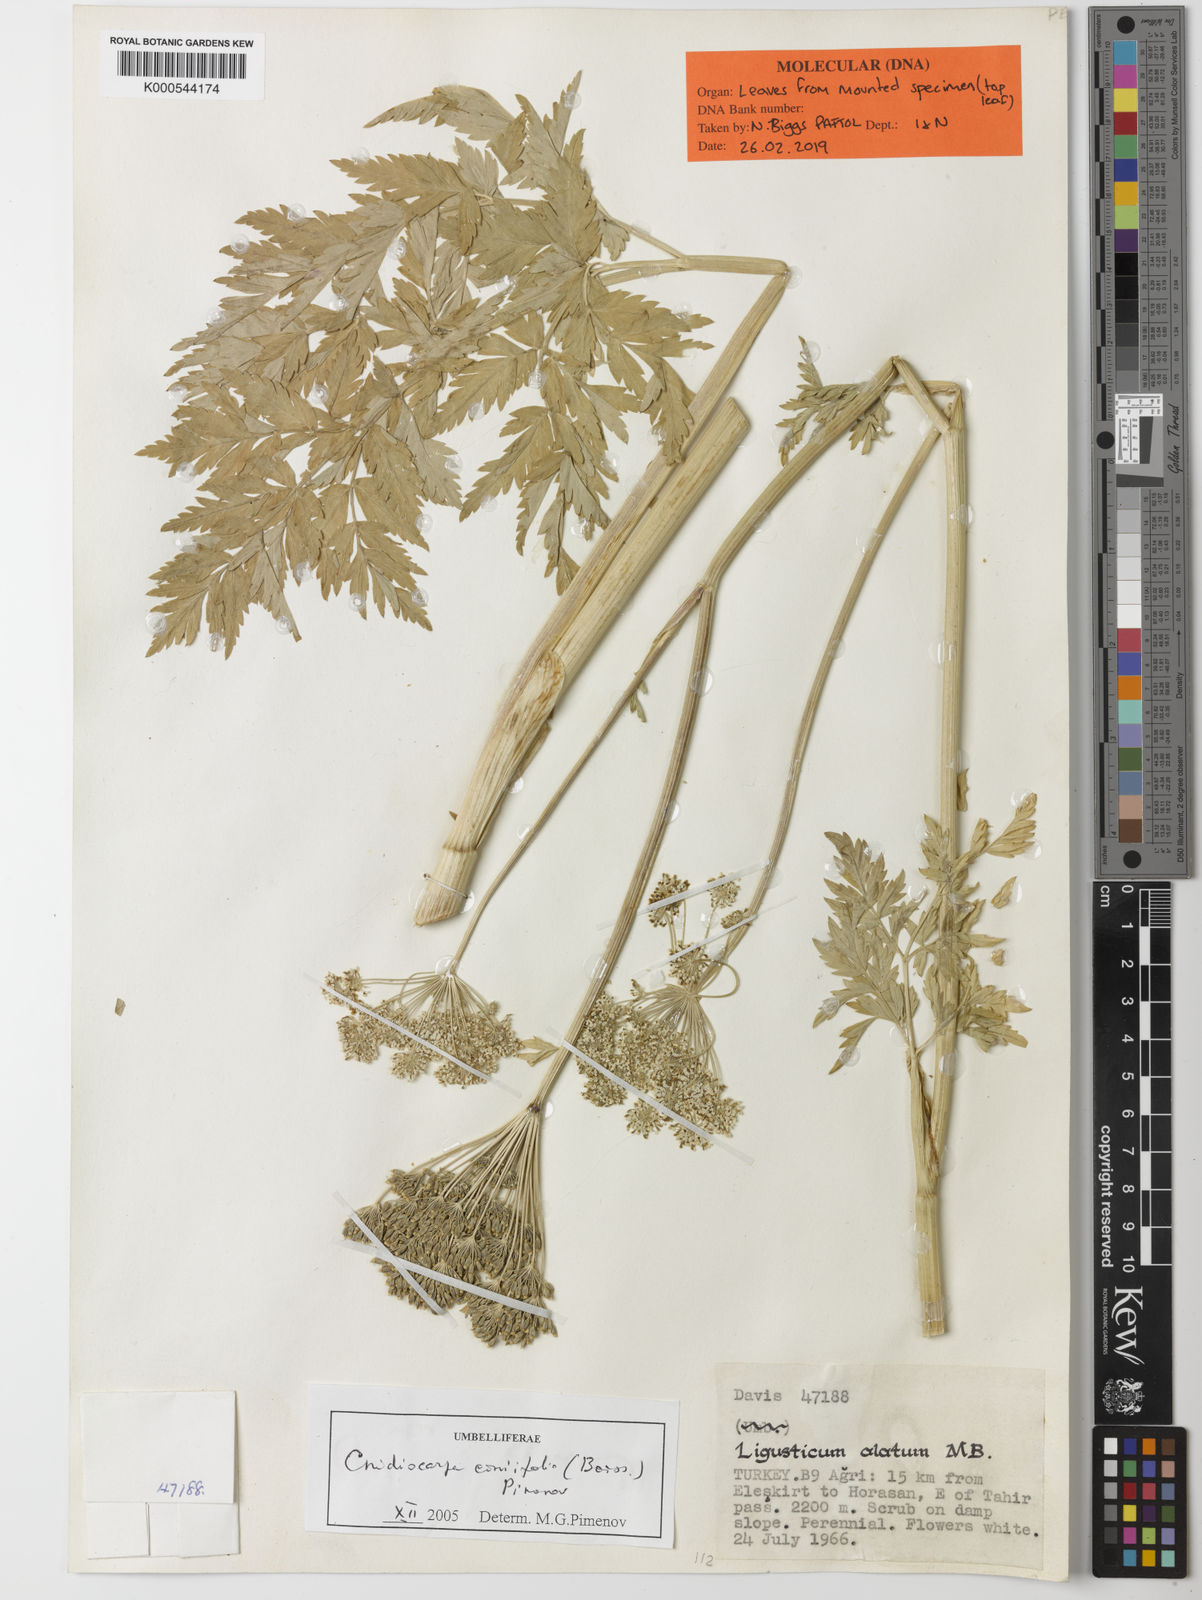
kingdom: Plantae
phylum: Tracheophyta
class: Magnoliopsida
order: Apiales
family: Apiaceae
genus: Selinum
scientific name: Selinum coniifolium
